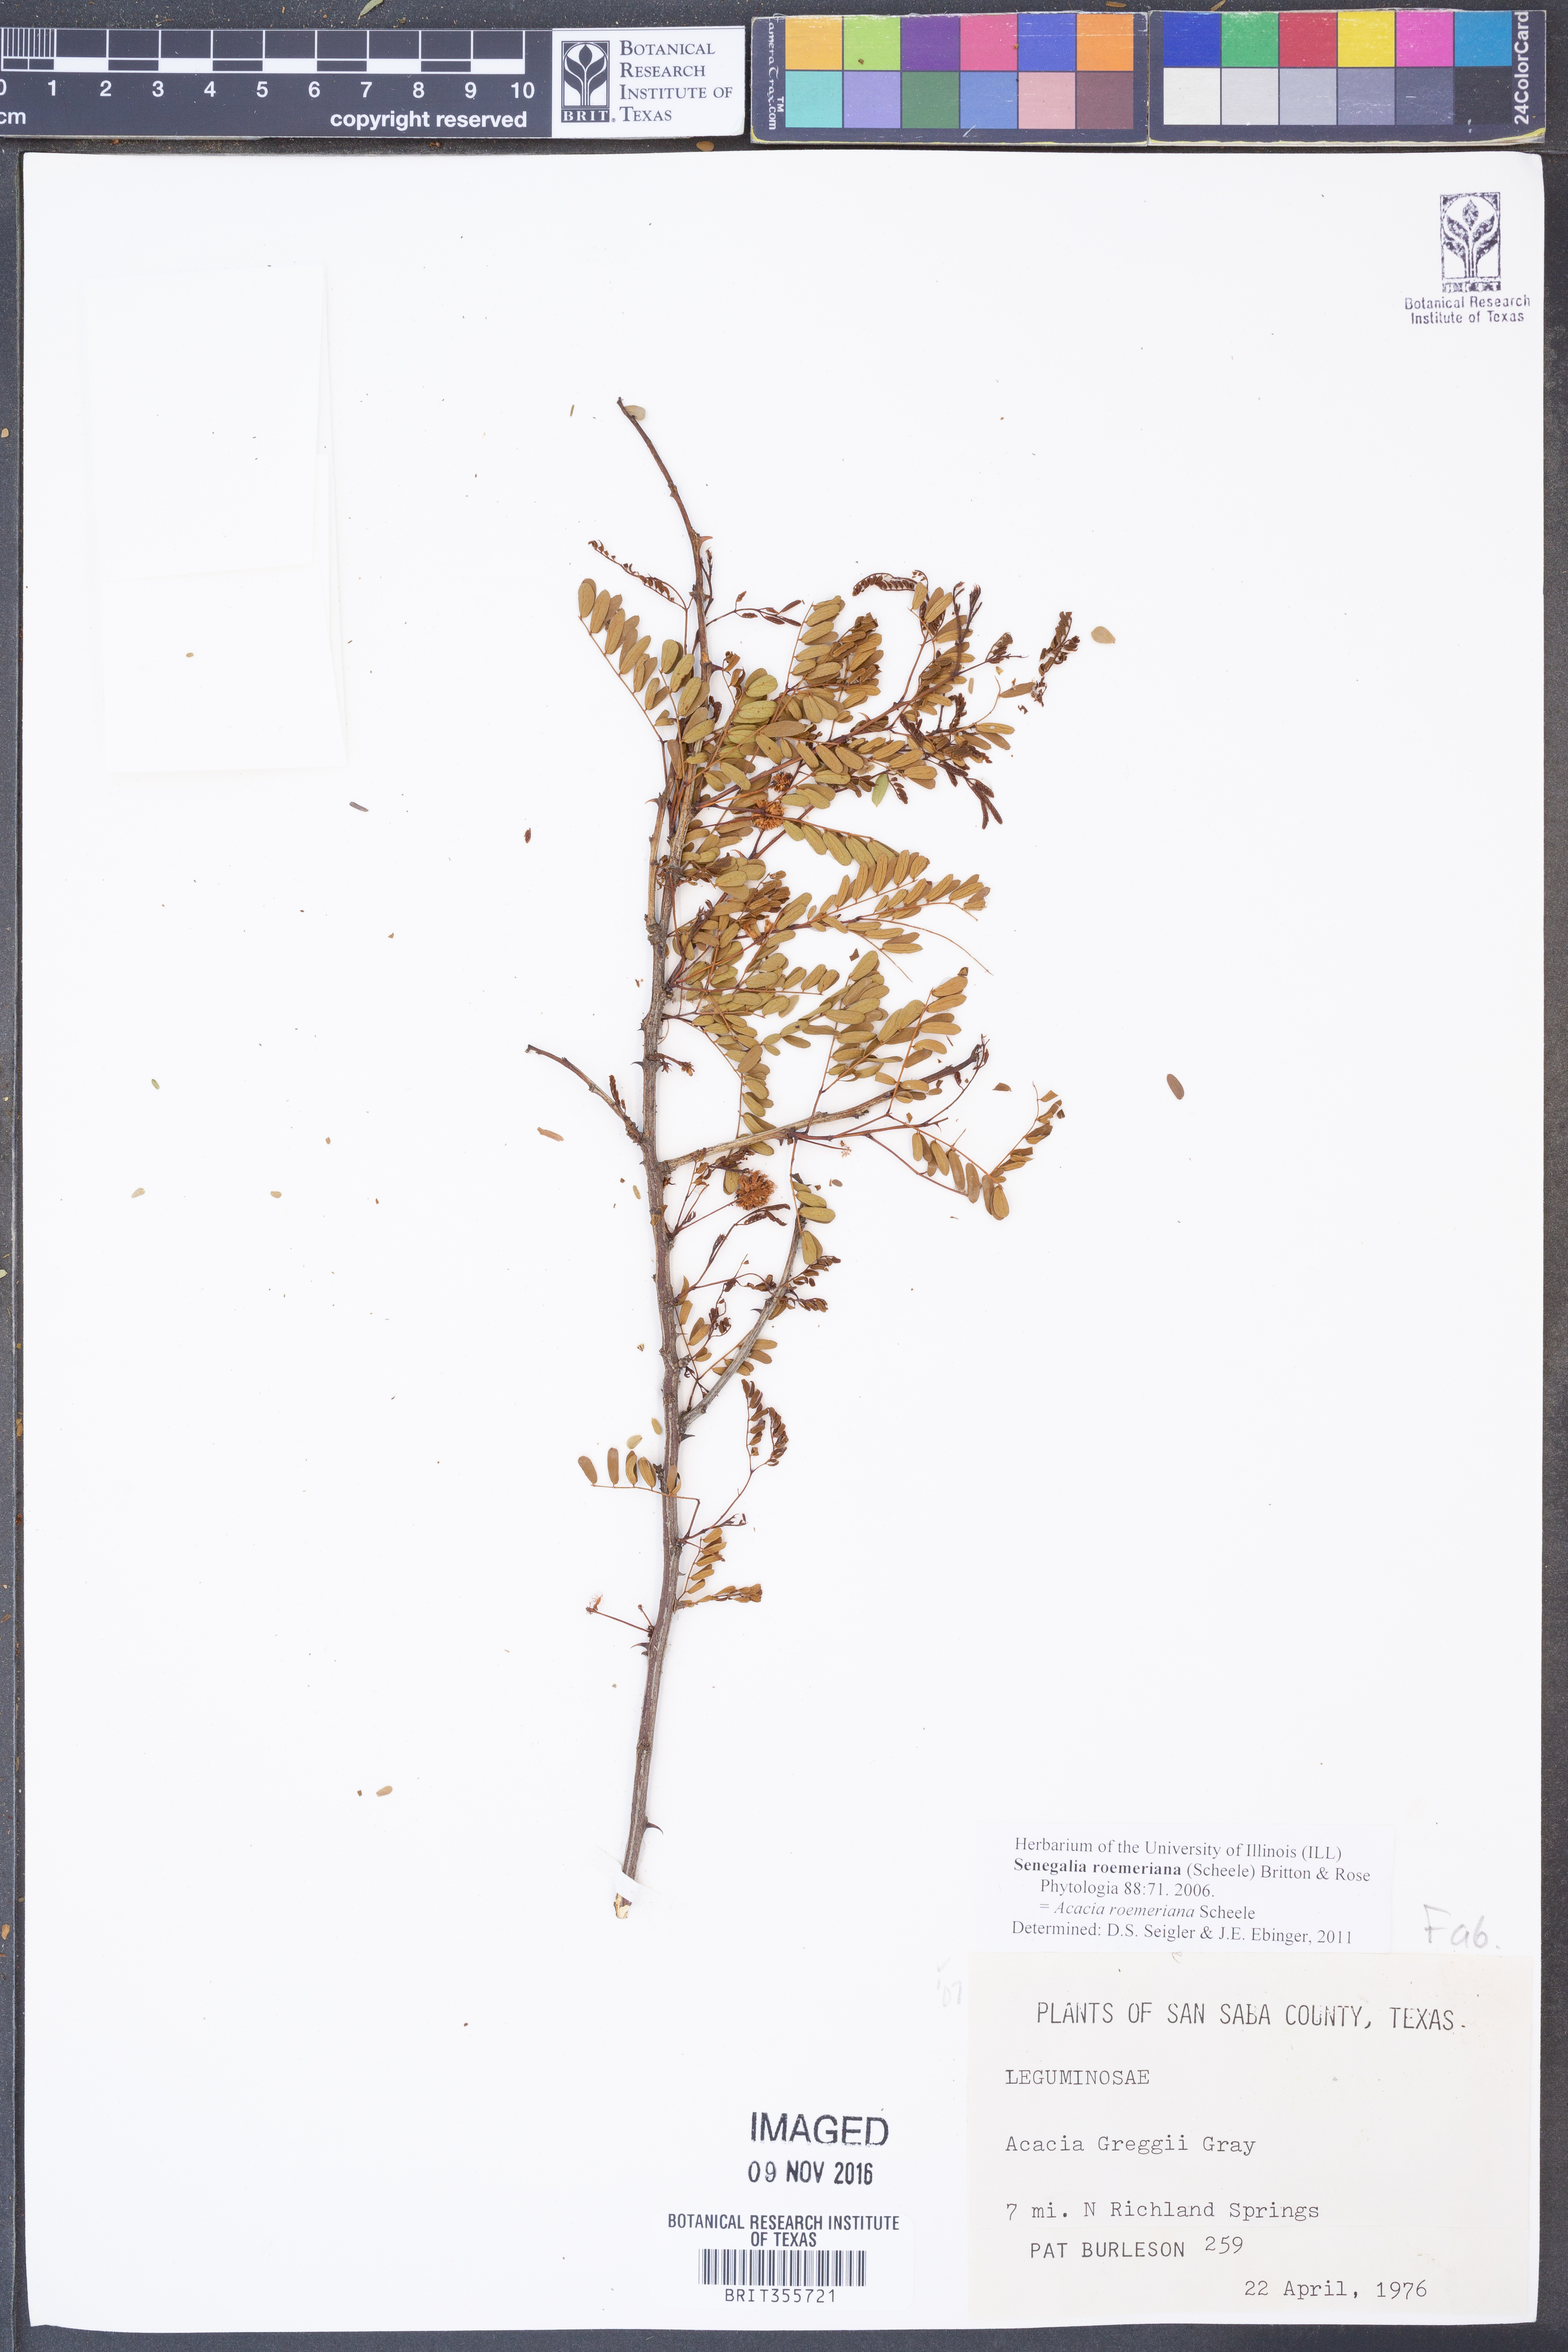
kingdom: Plantae
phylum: Tracheophyta
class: Magnoliopsida
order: Fabales
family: Fabaceae
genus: Senegalia
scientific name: Senegalia roemeriana
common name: Roemer's acacia
